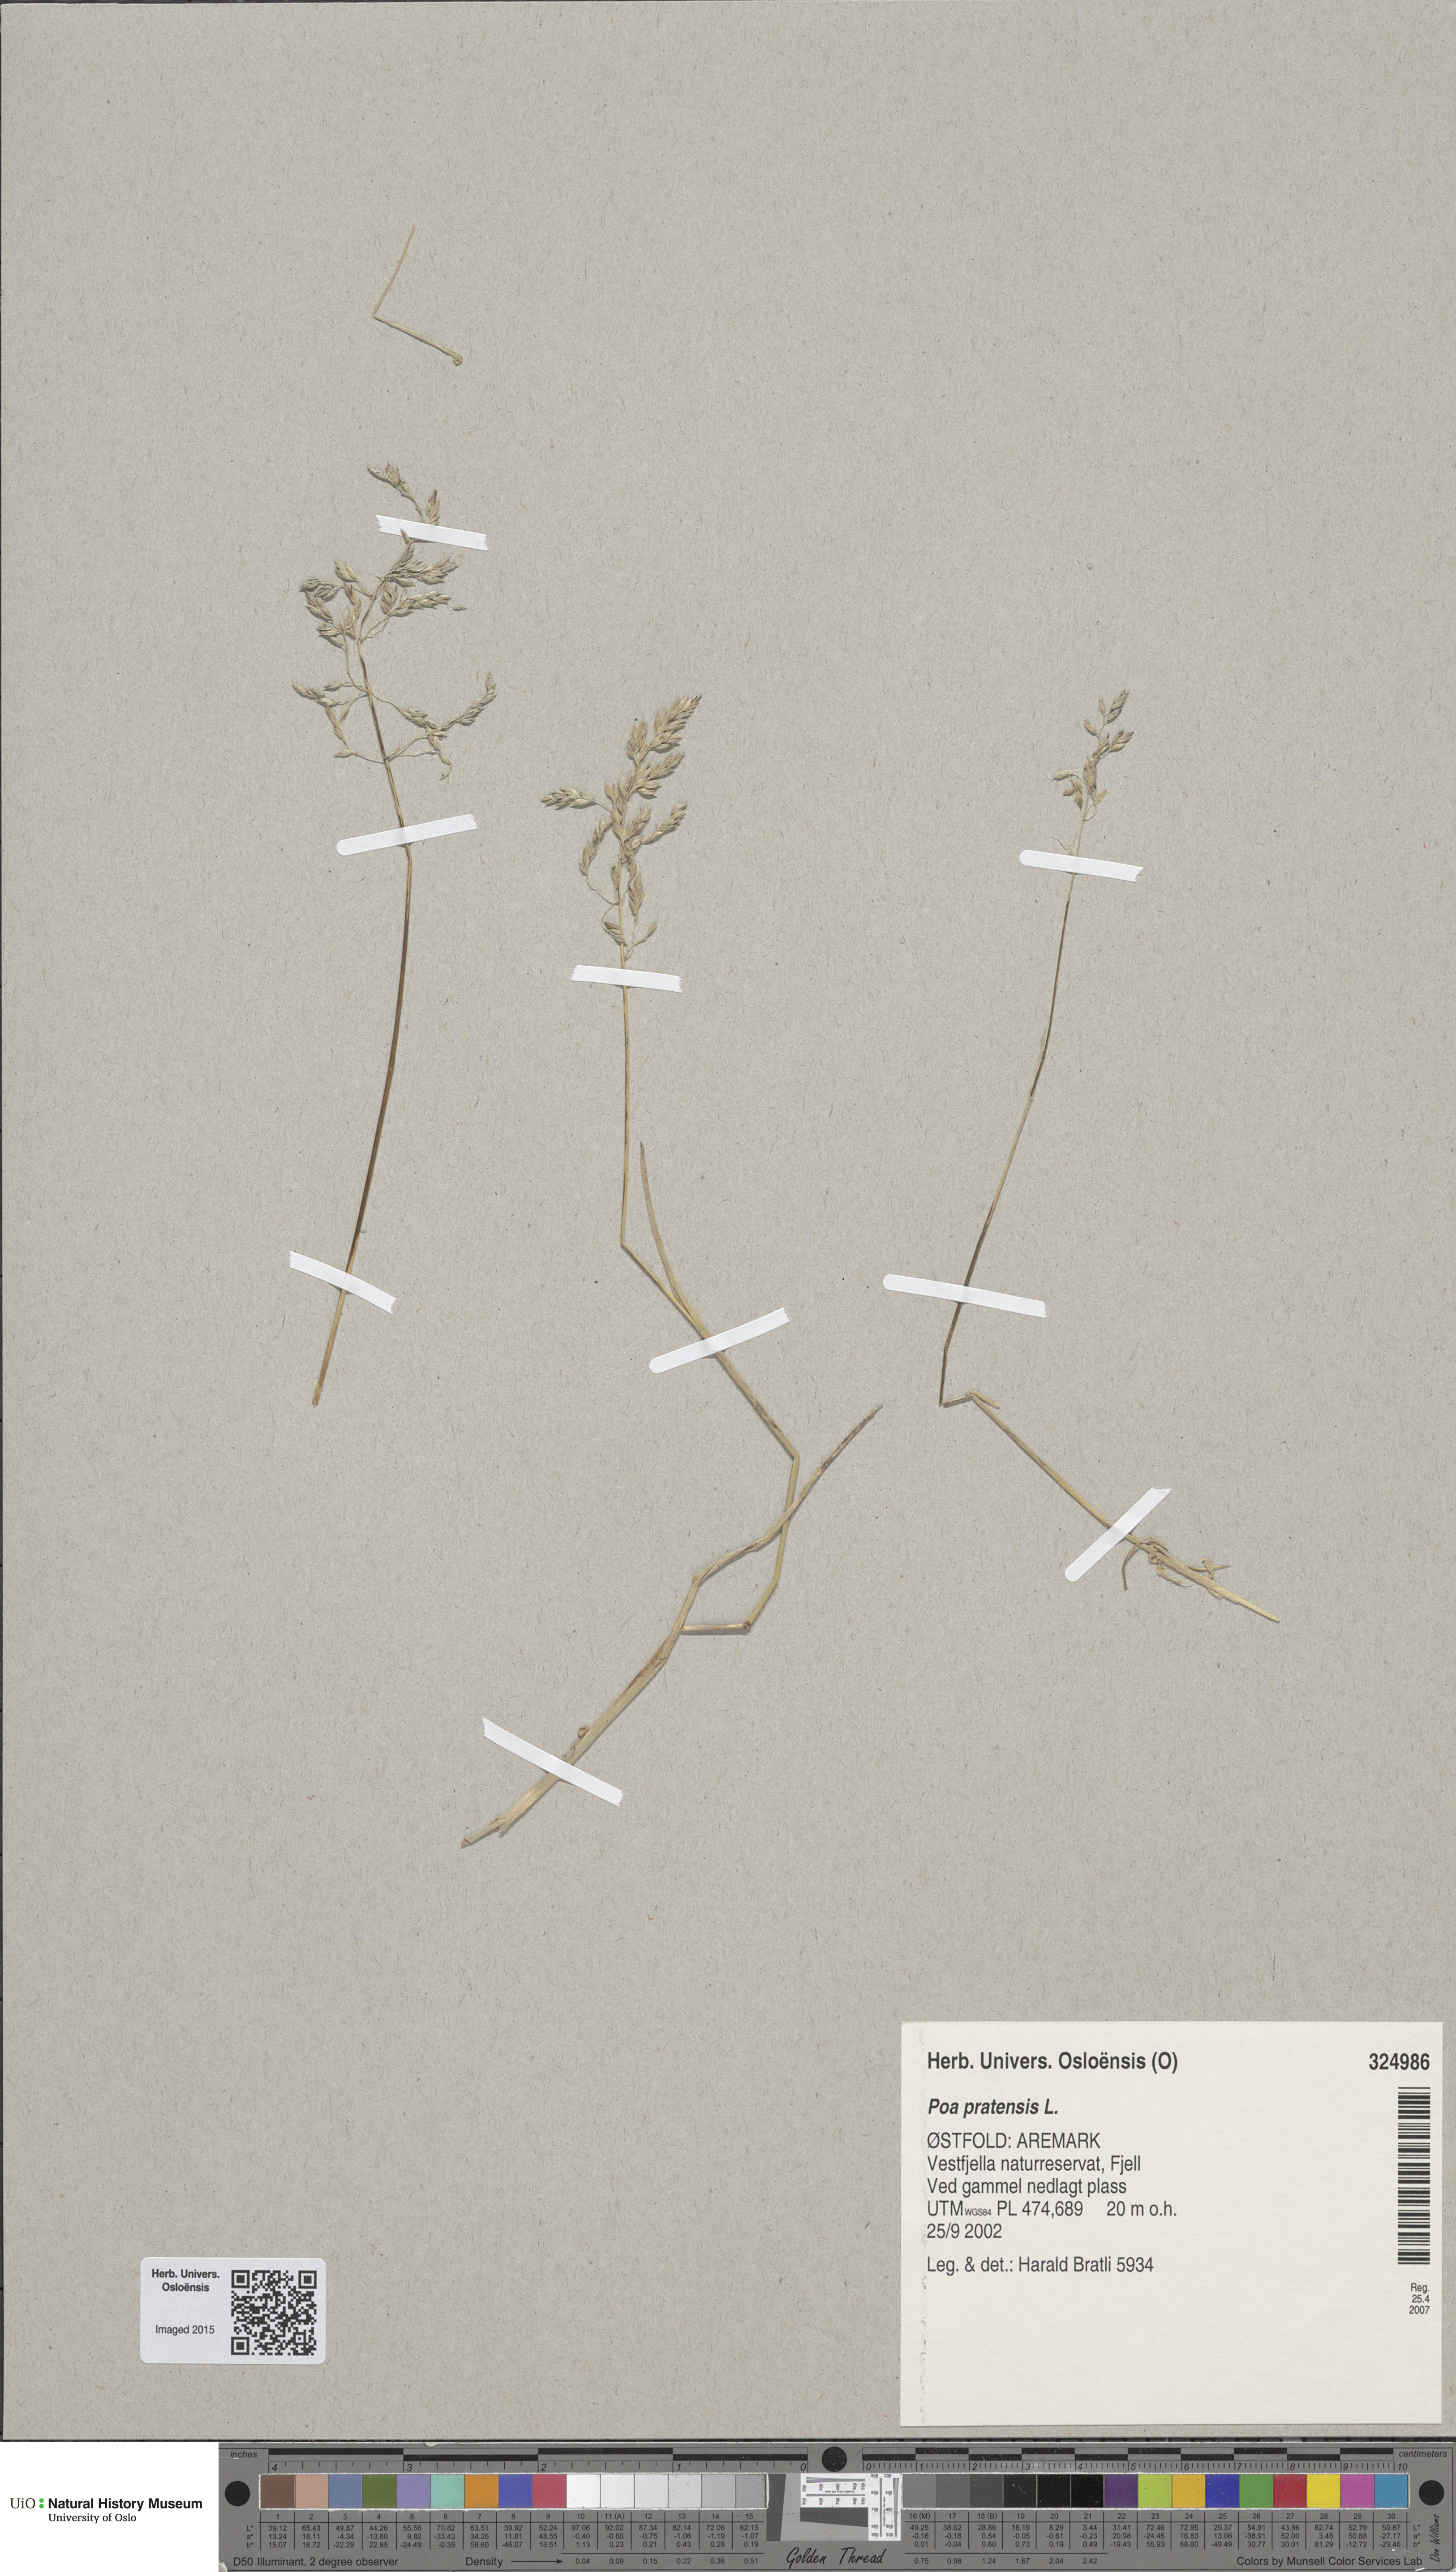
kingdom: Plantae
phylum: Tracheophyta
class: Liliopsida
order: Poales
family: Poaceae
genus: Poa
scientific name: Poa pratensis
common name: Kentucky bluegrass
